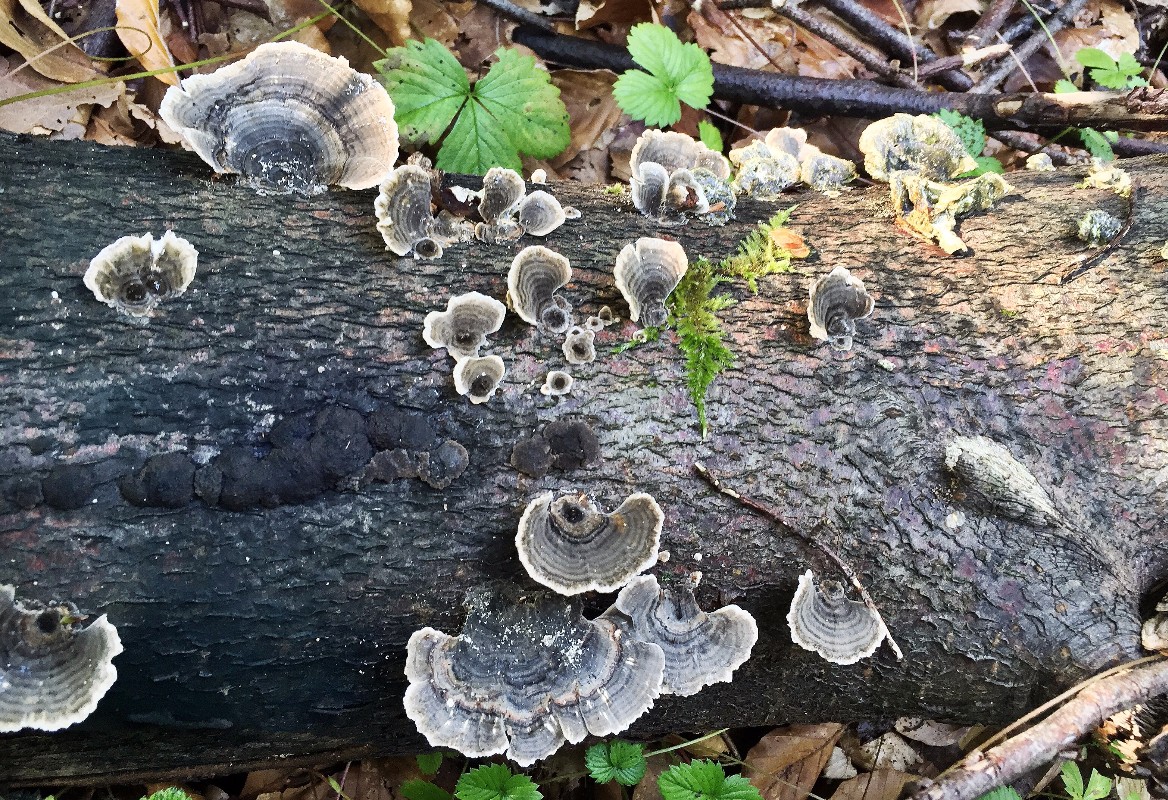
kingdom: Fungi
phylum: Basidiomycota
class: Agaricomycetes
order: Polyporales
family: Polyporaceae
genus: Trametes
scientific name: Trametes versicolor
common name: broget læderporesvamp
